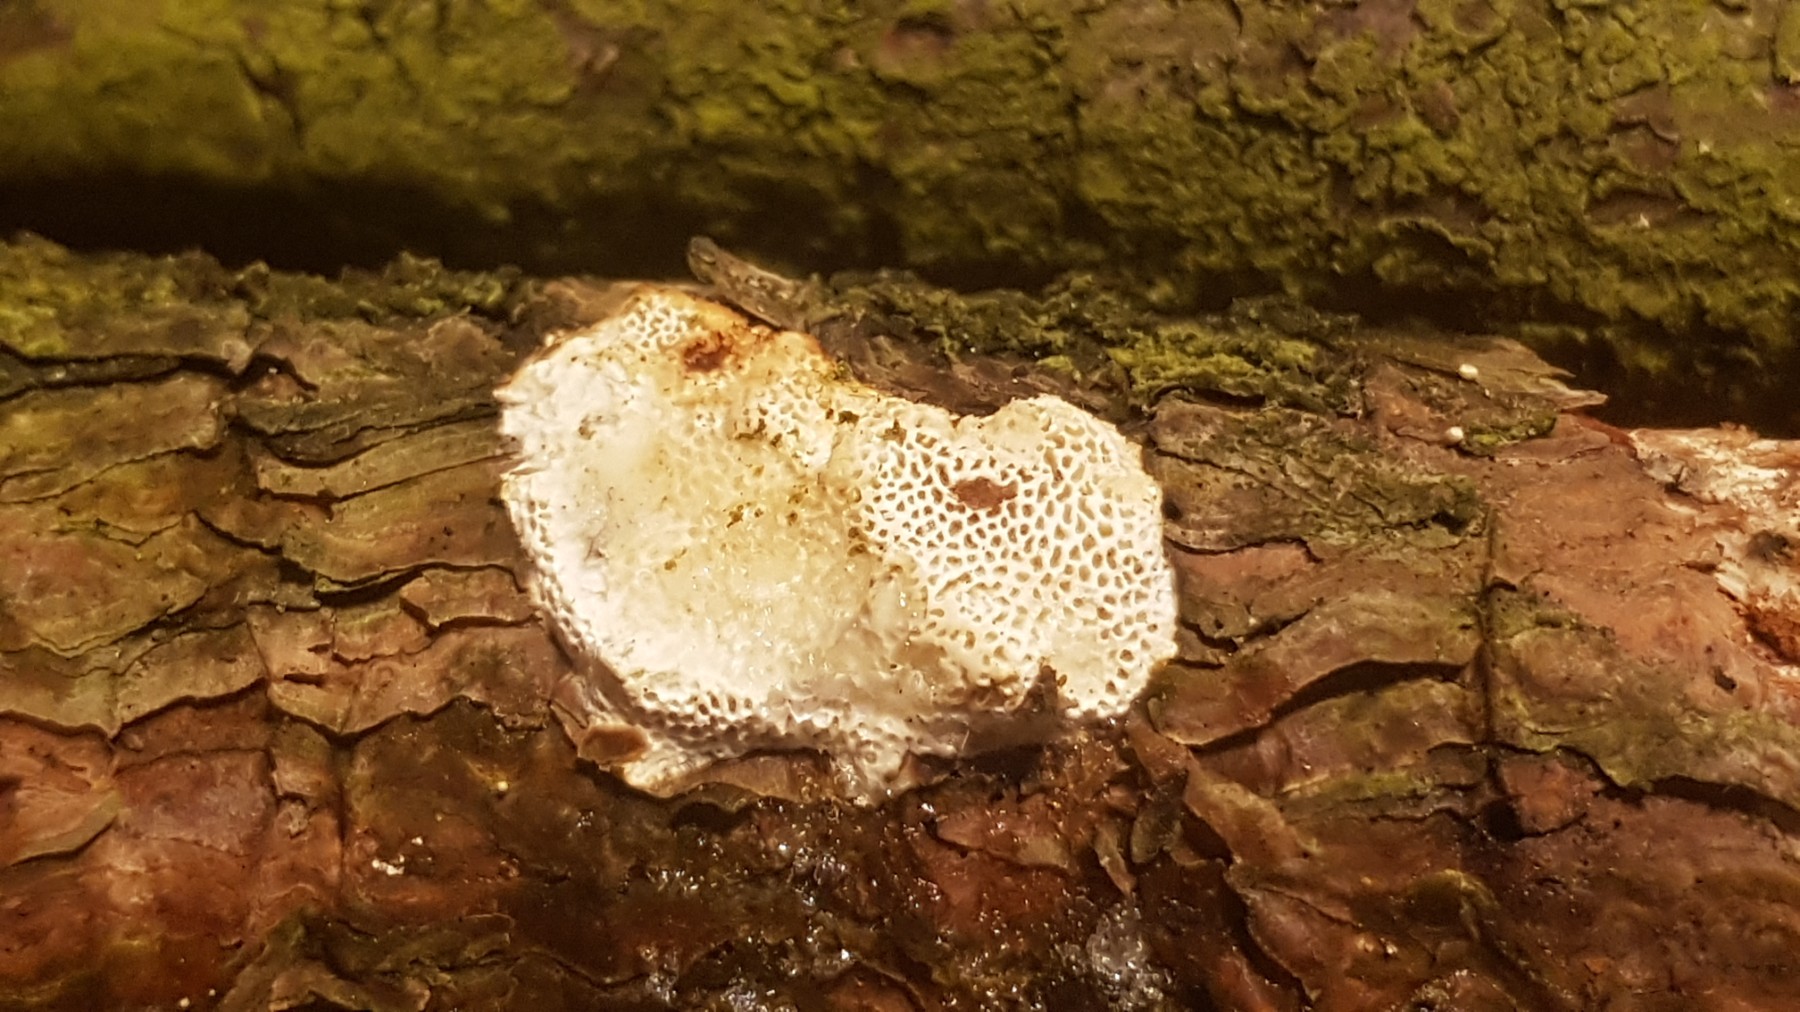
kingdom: Fungi
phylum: Basidiomycota
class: Agaricomycetes
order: Polyporales
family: Fomitopsidaceae
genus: Fomitopsis
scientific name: Fomitopsis
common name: fyrre-skiveporesvamp
